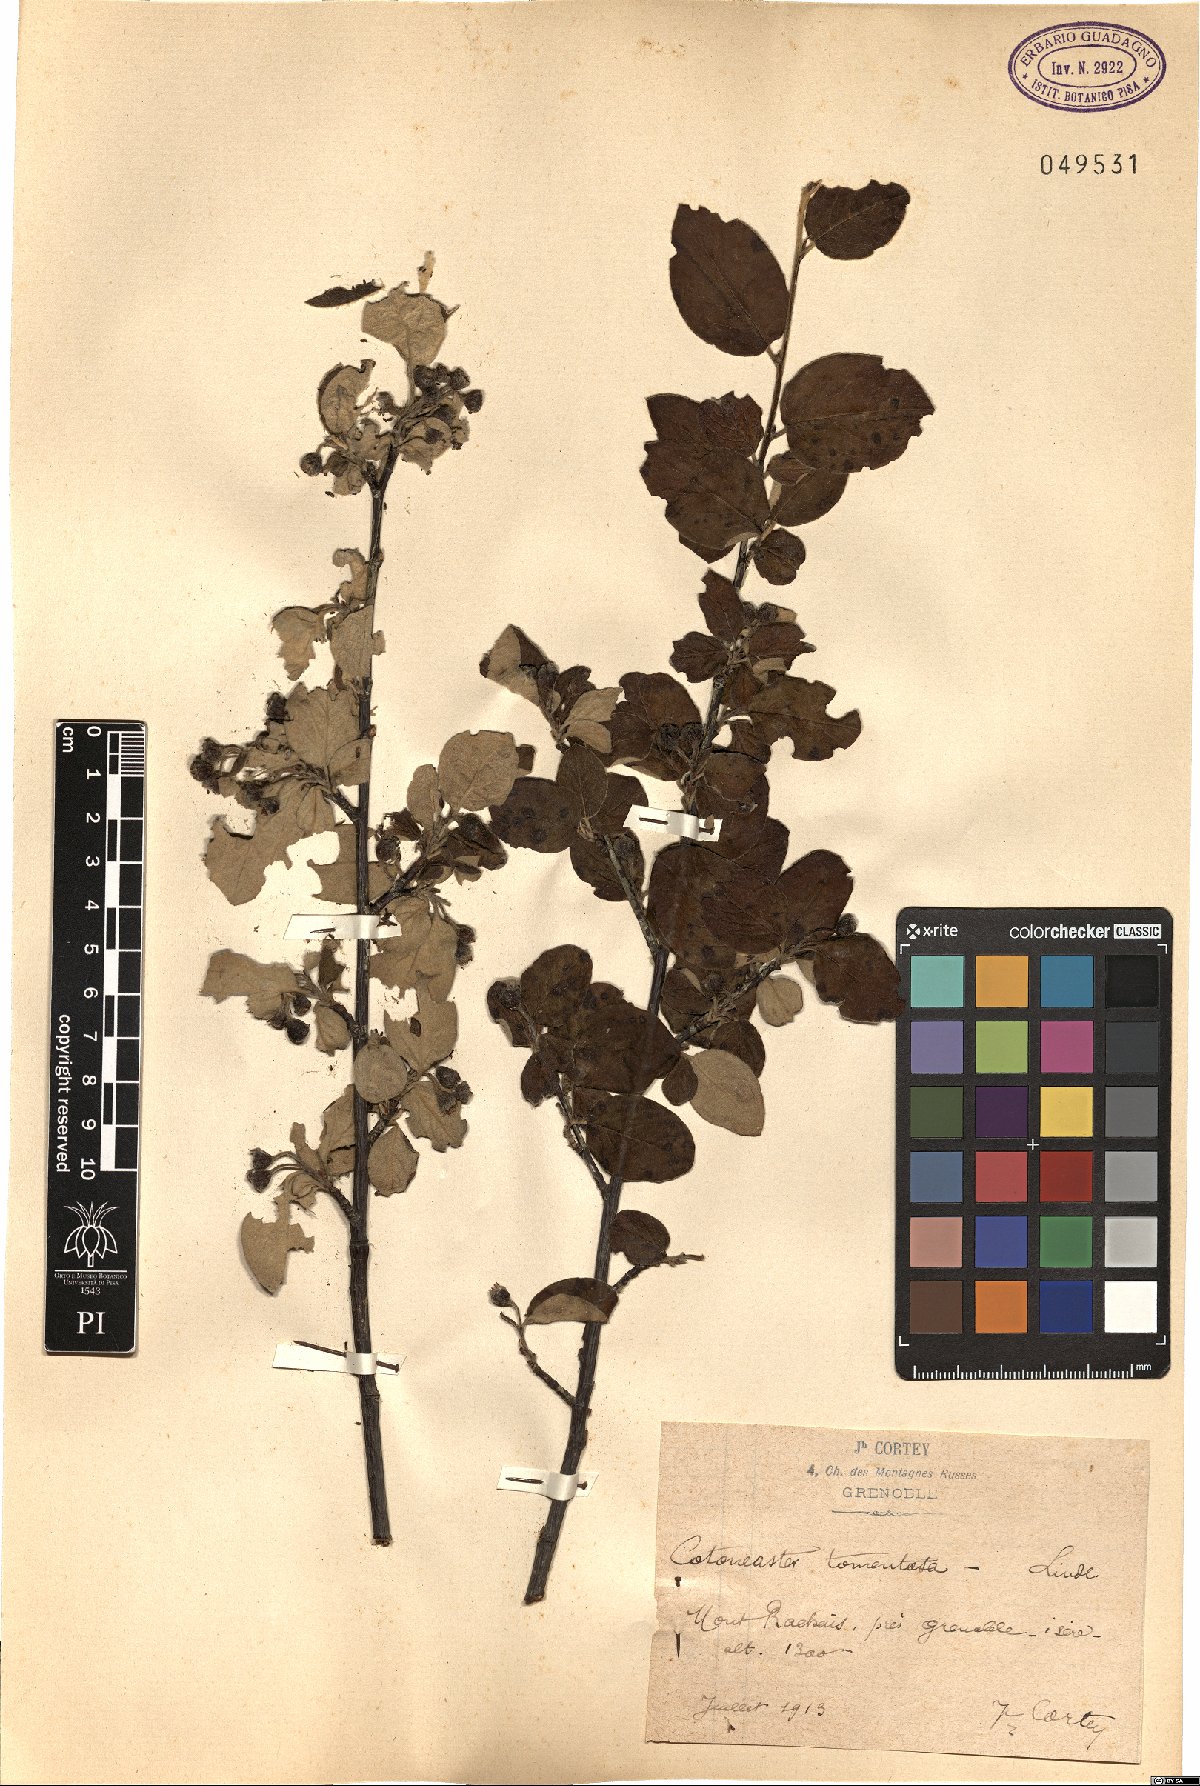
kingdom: Plantae
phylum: Tracheophyta
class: Magnoliopsida
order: Rosales
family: Rosaceae
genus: Cotoneaster
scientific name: Cotoneaster tomentosus
